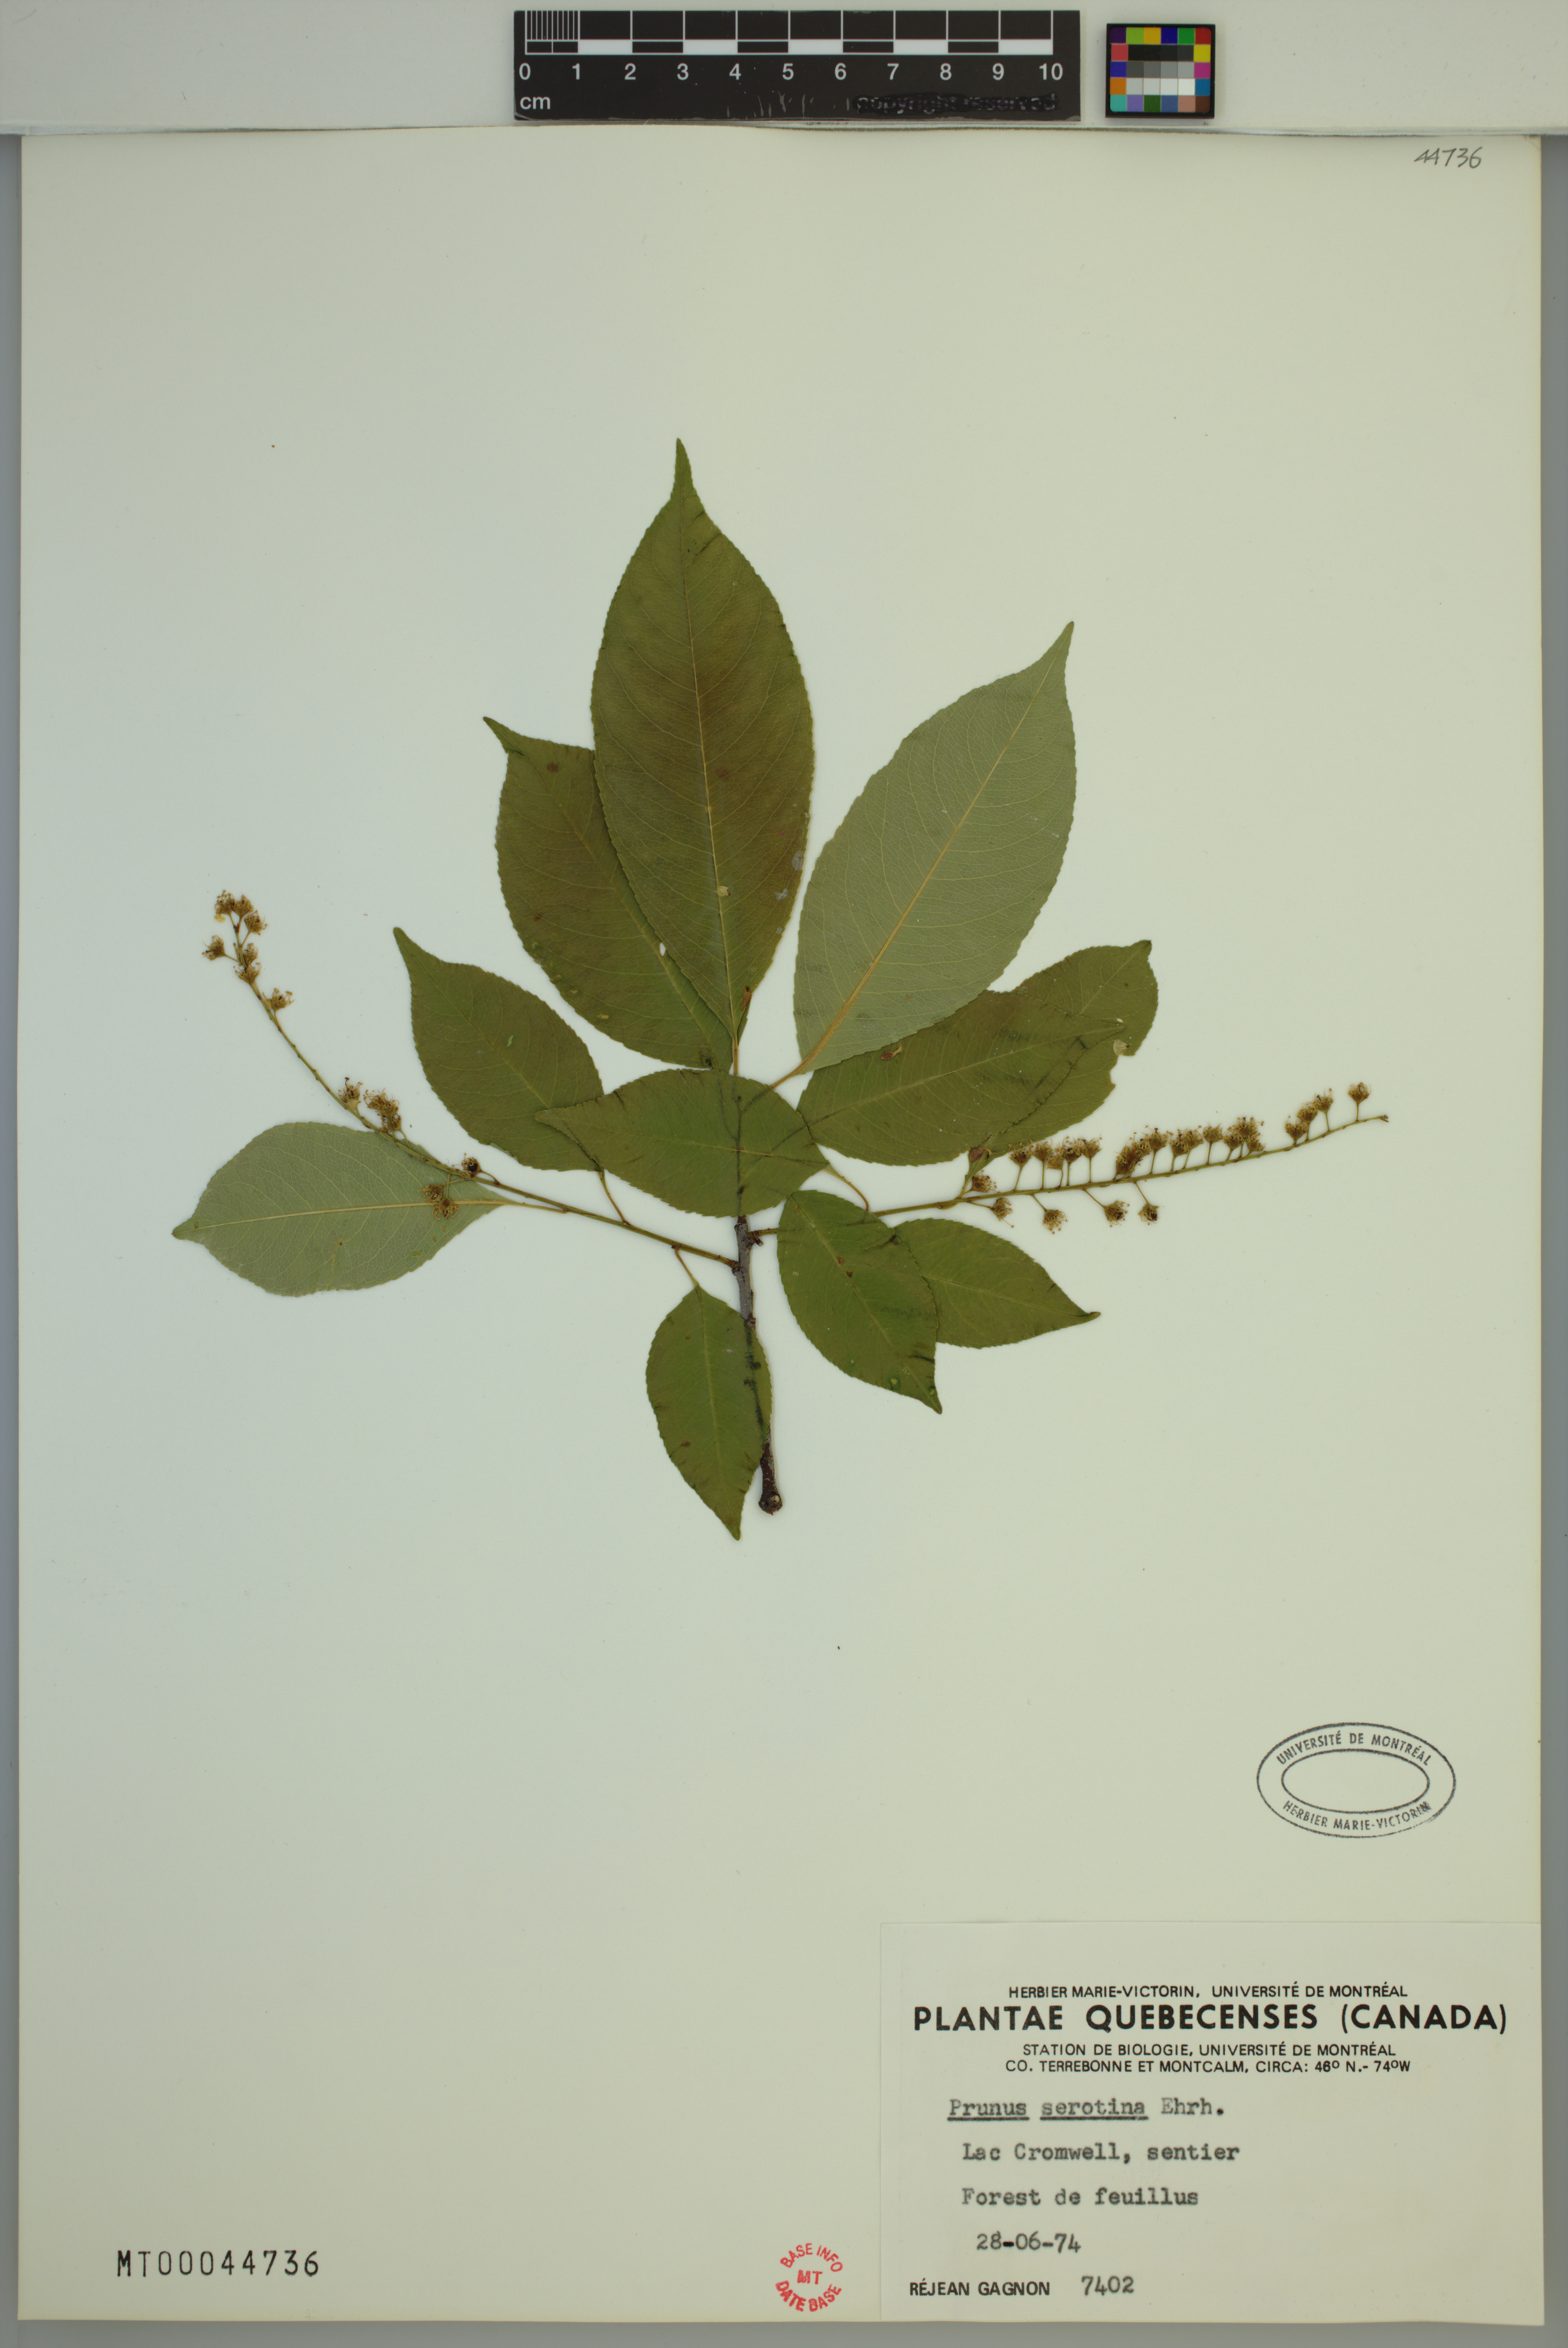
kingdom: Plantae
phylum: Tracheophyta
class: Magnoliopsida
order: Rosales
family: Rosaceae
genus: Prunus
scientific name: Prunus serotina
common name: Black cherry
